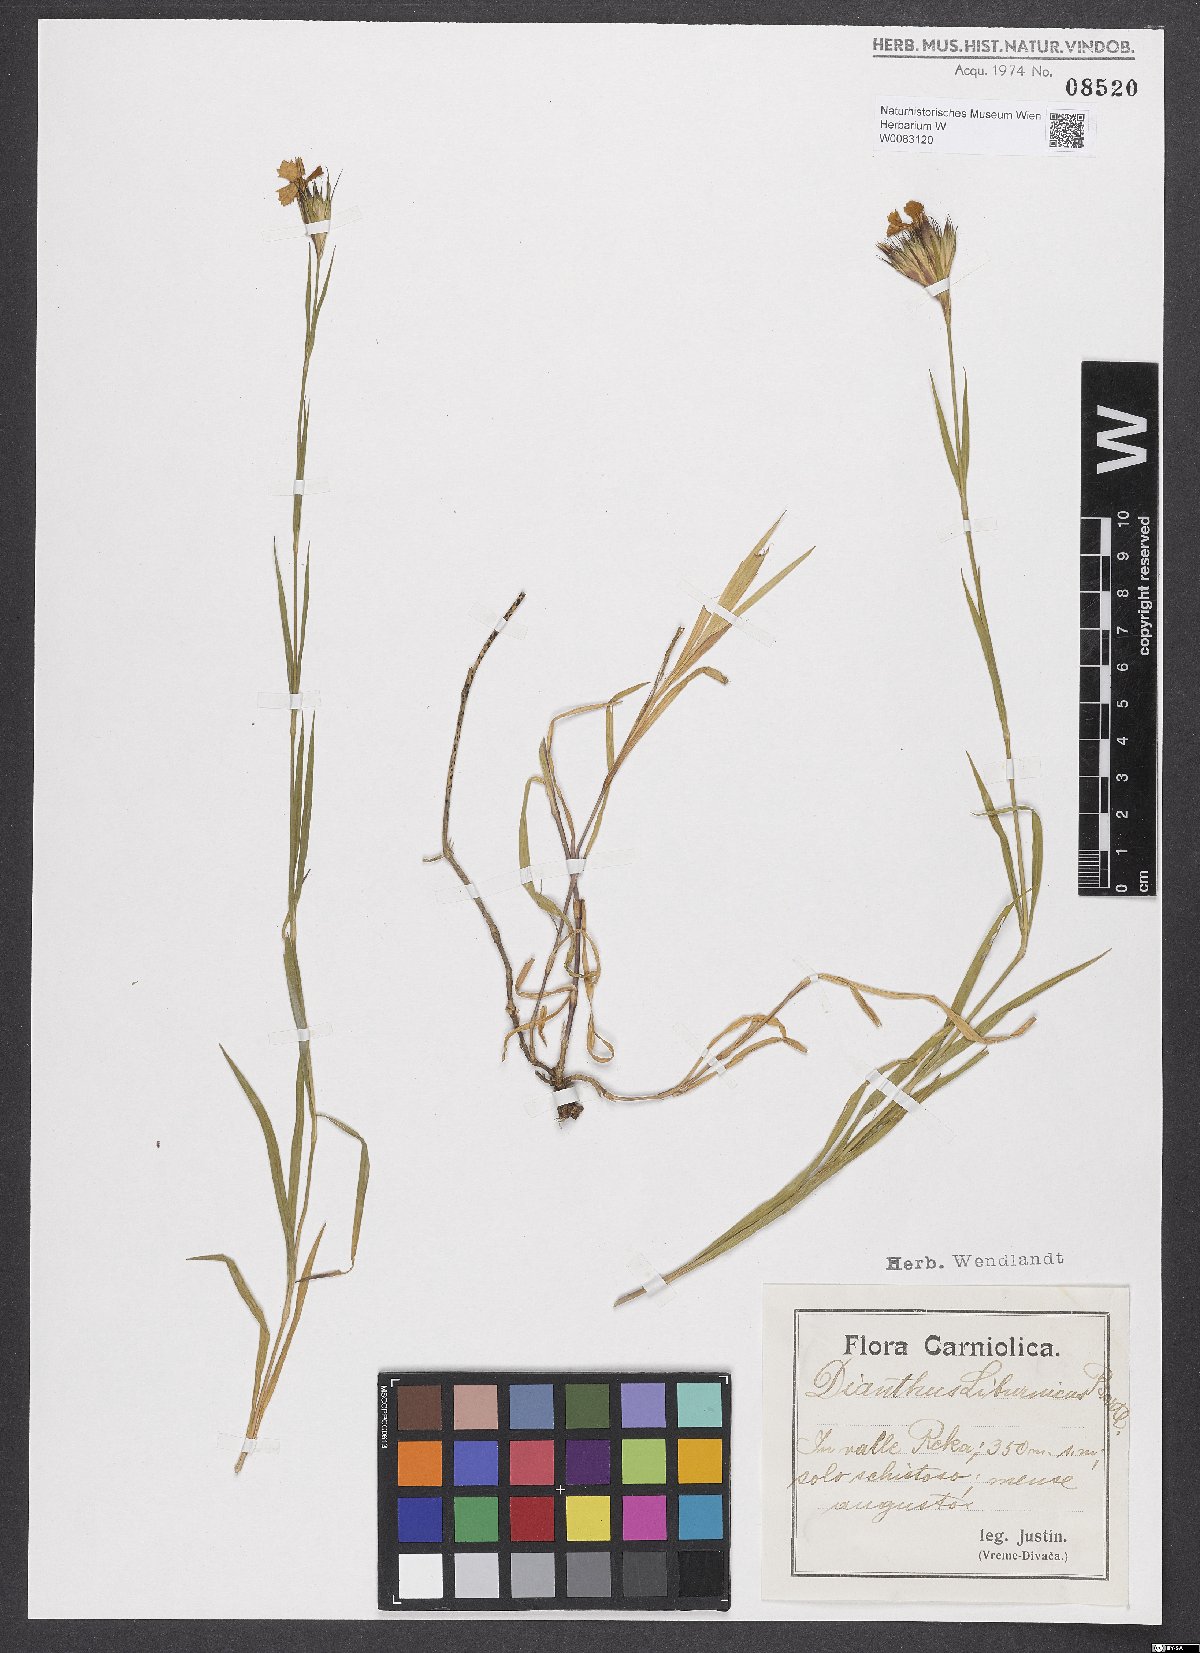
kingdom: Plantae
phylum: Tracheophyta
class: Magnoliopsida
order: Caryophyllales
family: Caryophyllaceae
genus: Dianthus
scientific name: Dianthus balbisii
